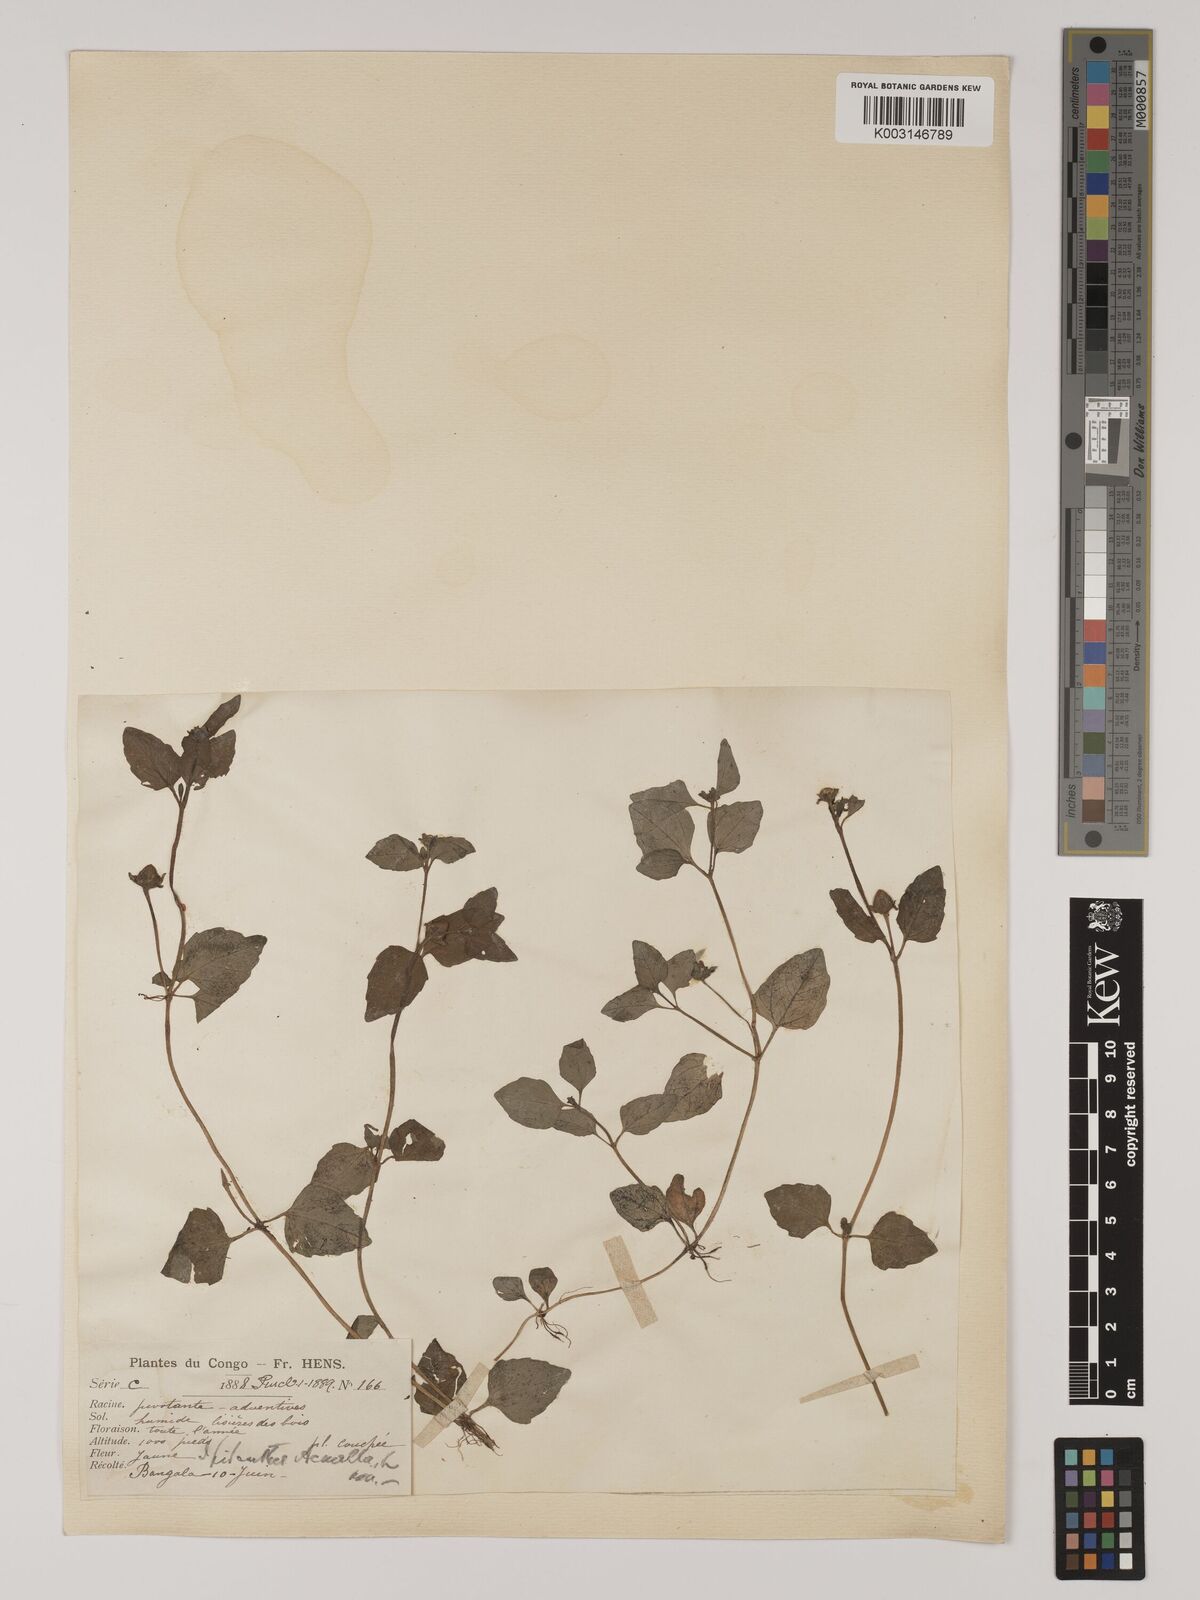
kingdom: Plantae
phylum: Tracheophyta
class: Magnoliopsida
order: Asterales
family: Asteraceae
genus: Acmella
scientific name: Acmella caulirhiza
